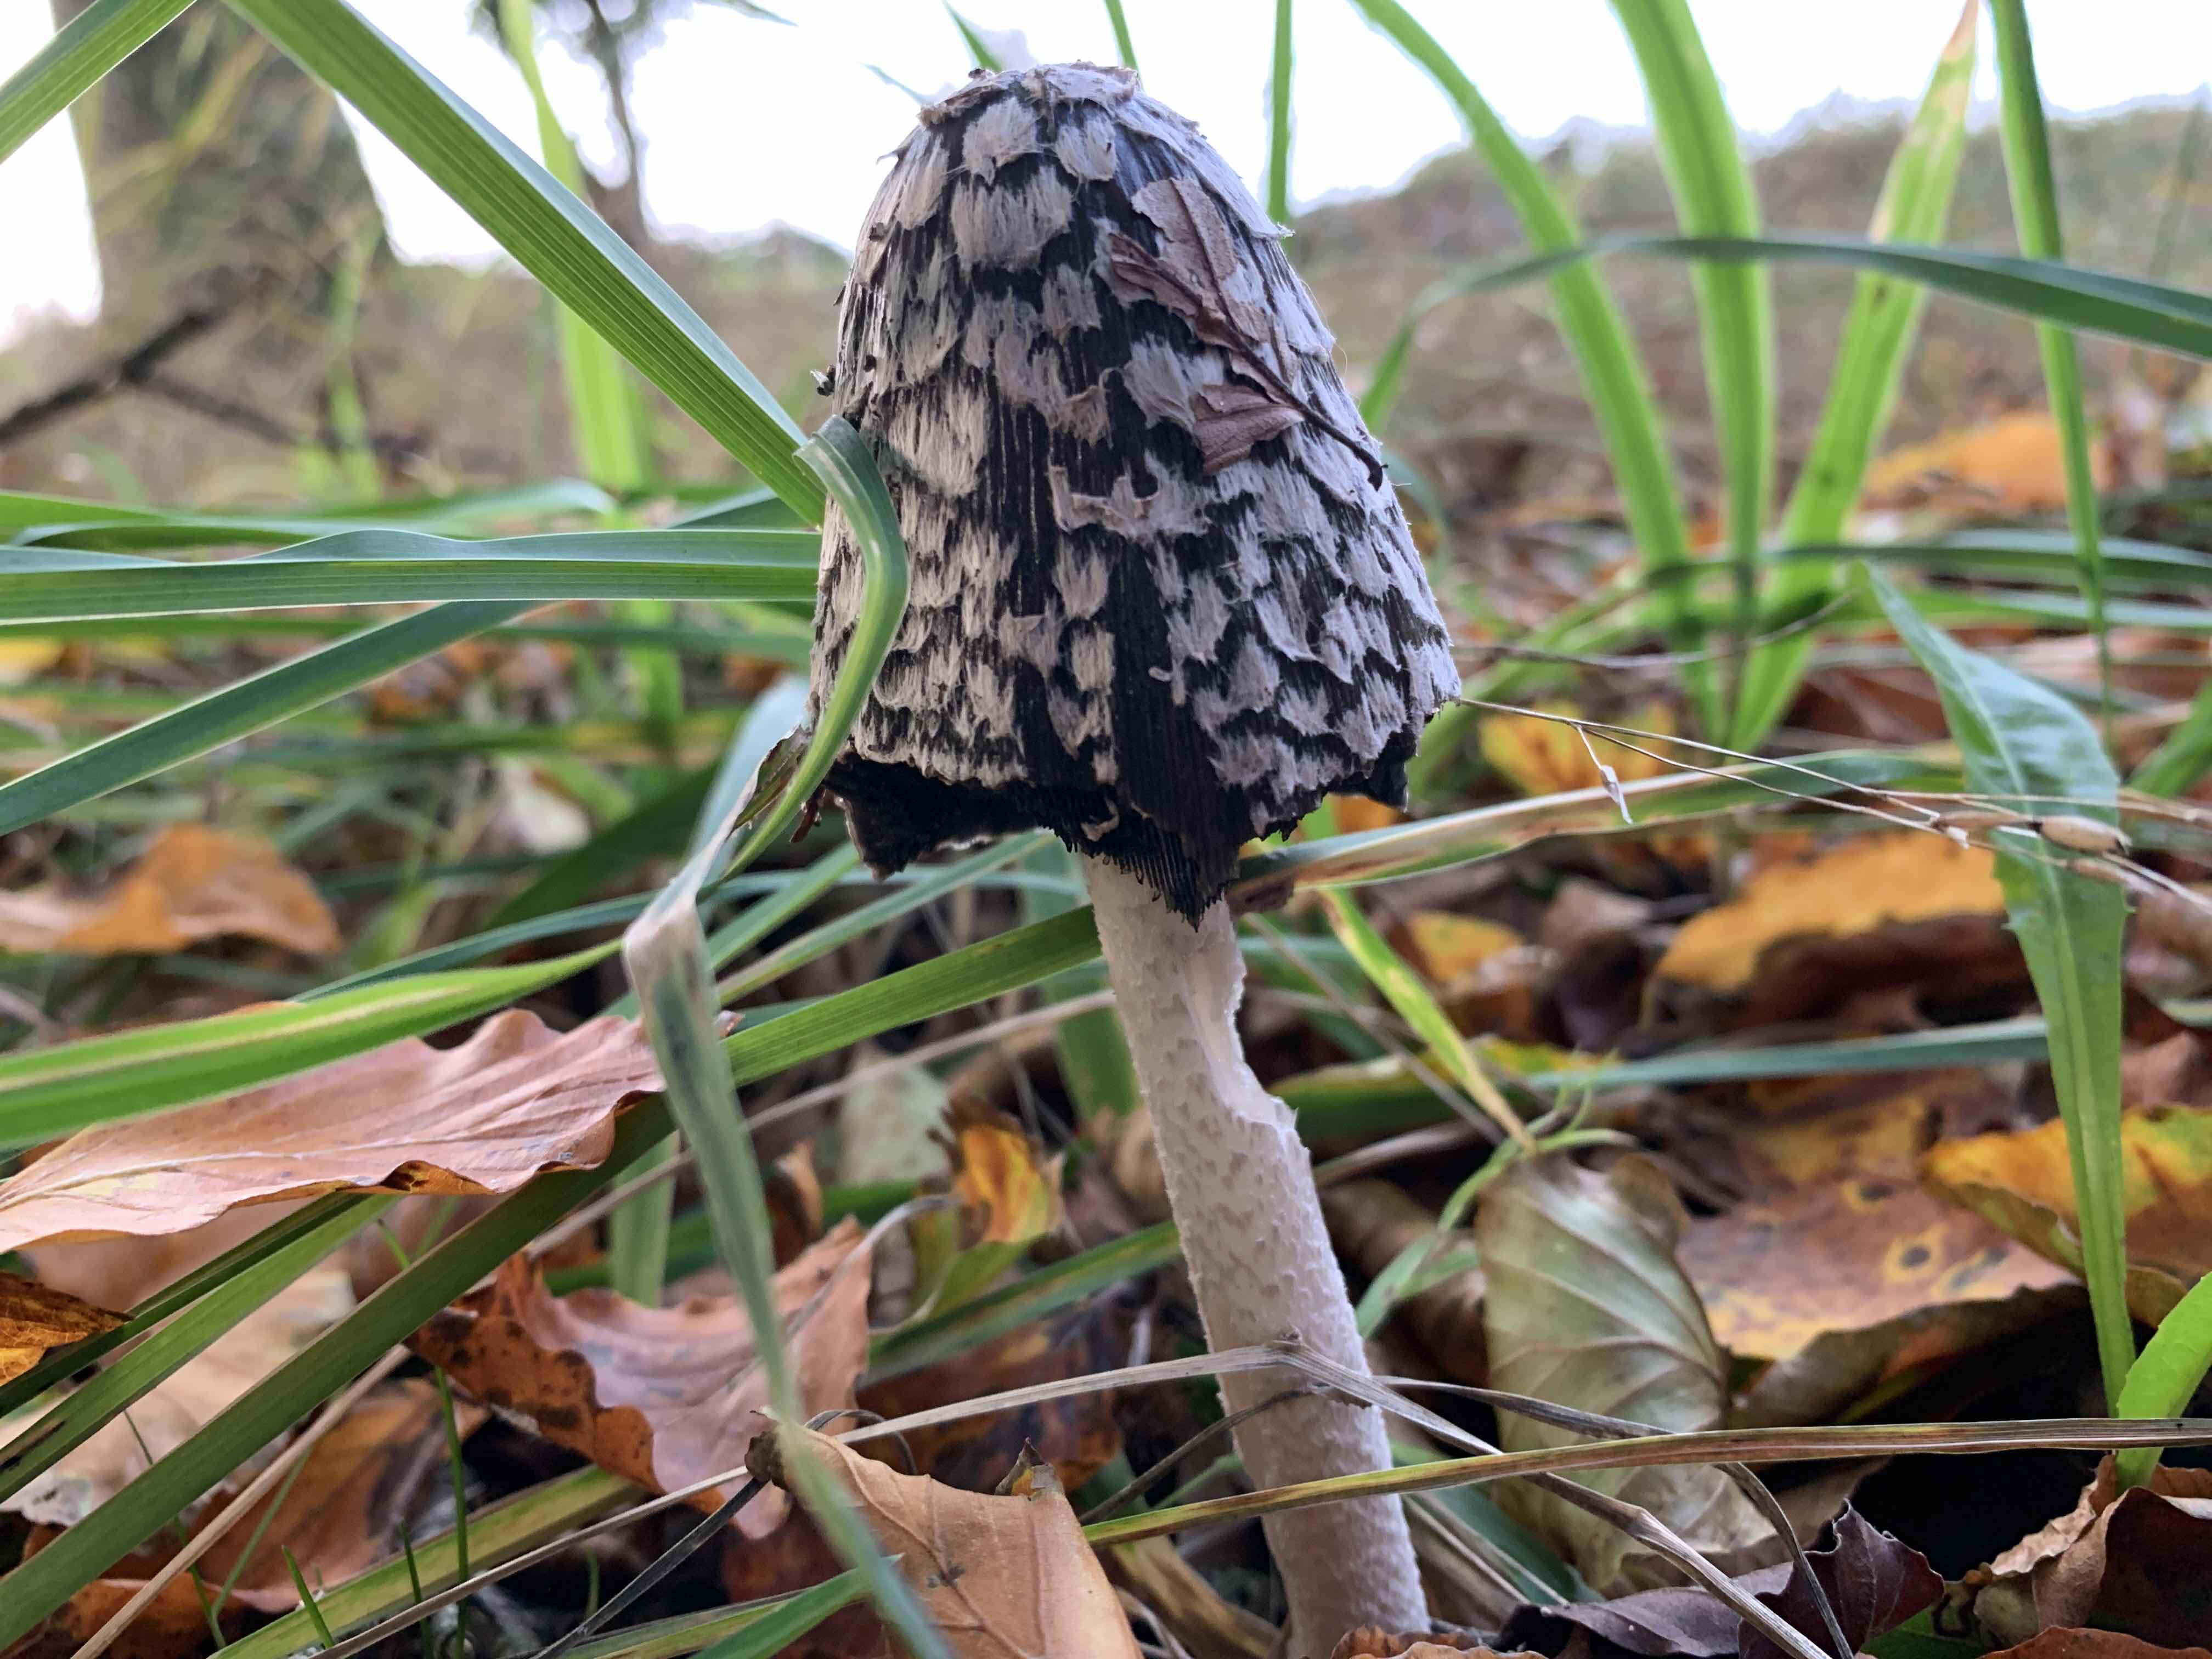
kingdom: Fungi
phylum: Basidiomycota
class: Agaricomycetes
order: Agaricales
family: Psathyrellaceae
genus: Coprinopsis
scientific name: Coprinopsis picacea
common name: skade-blækhat
